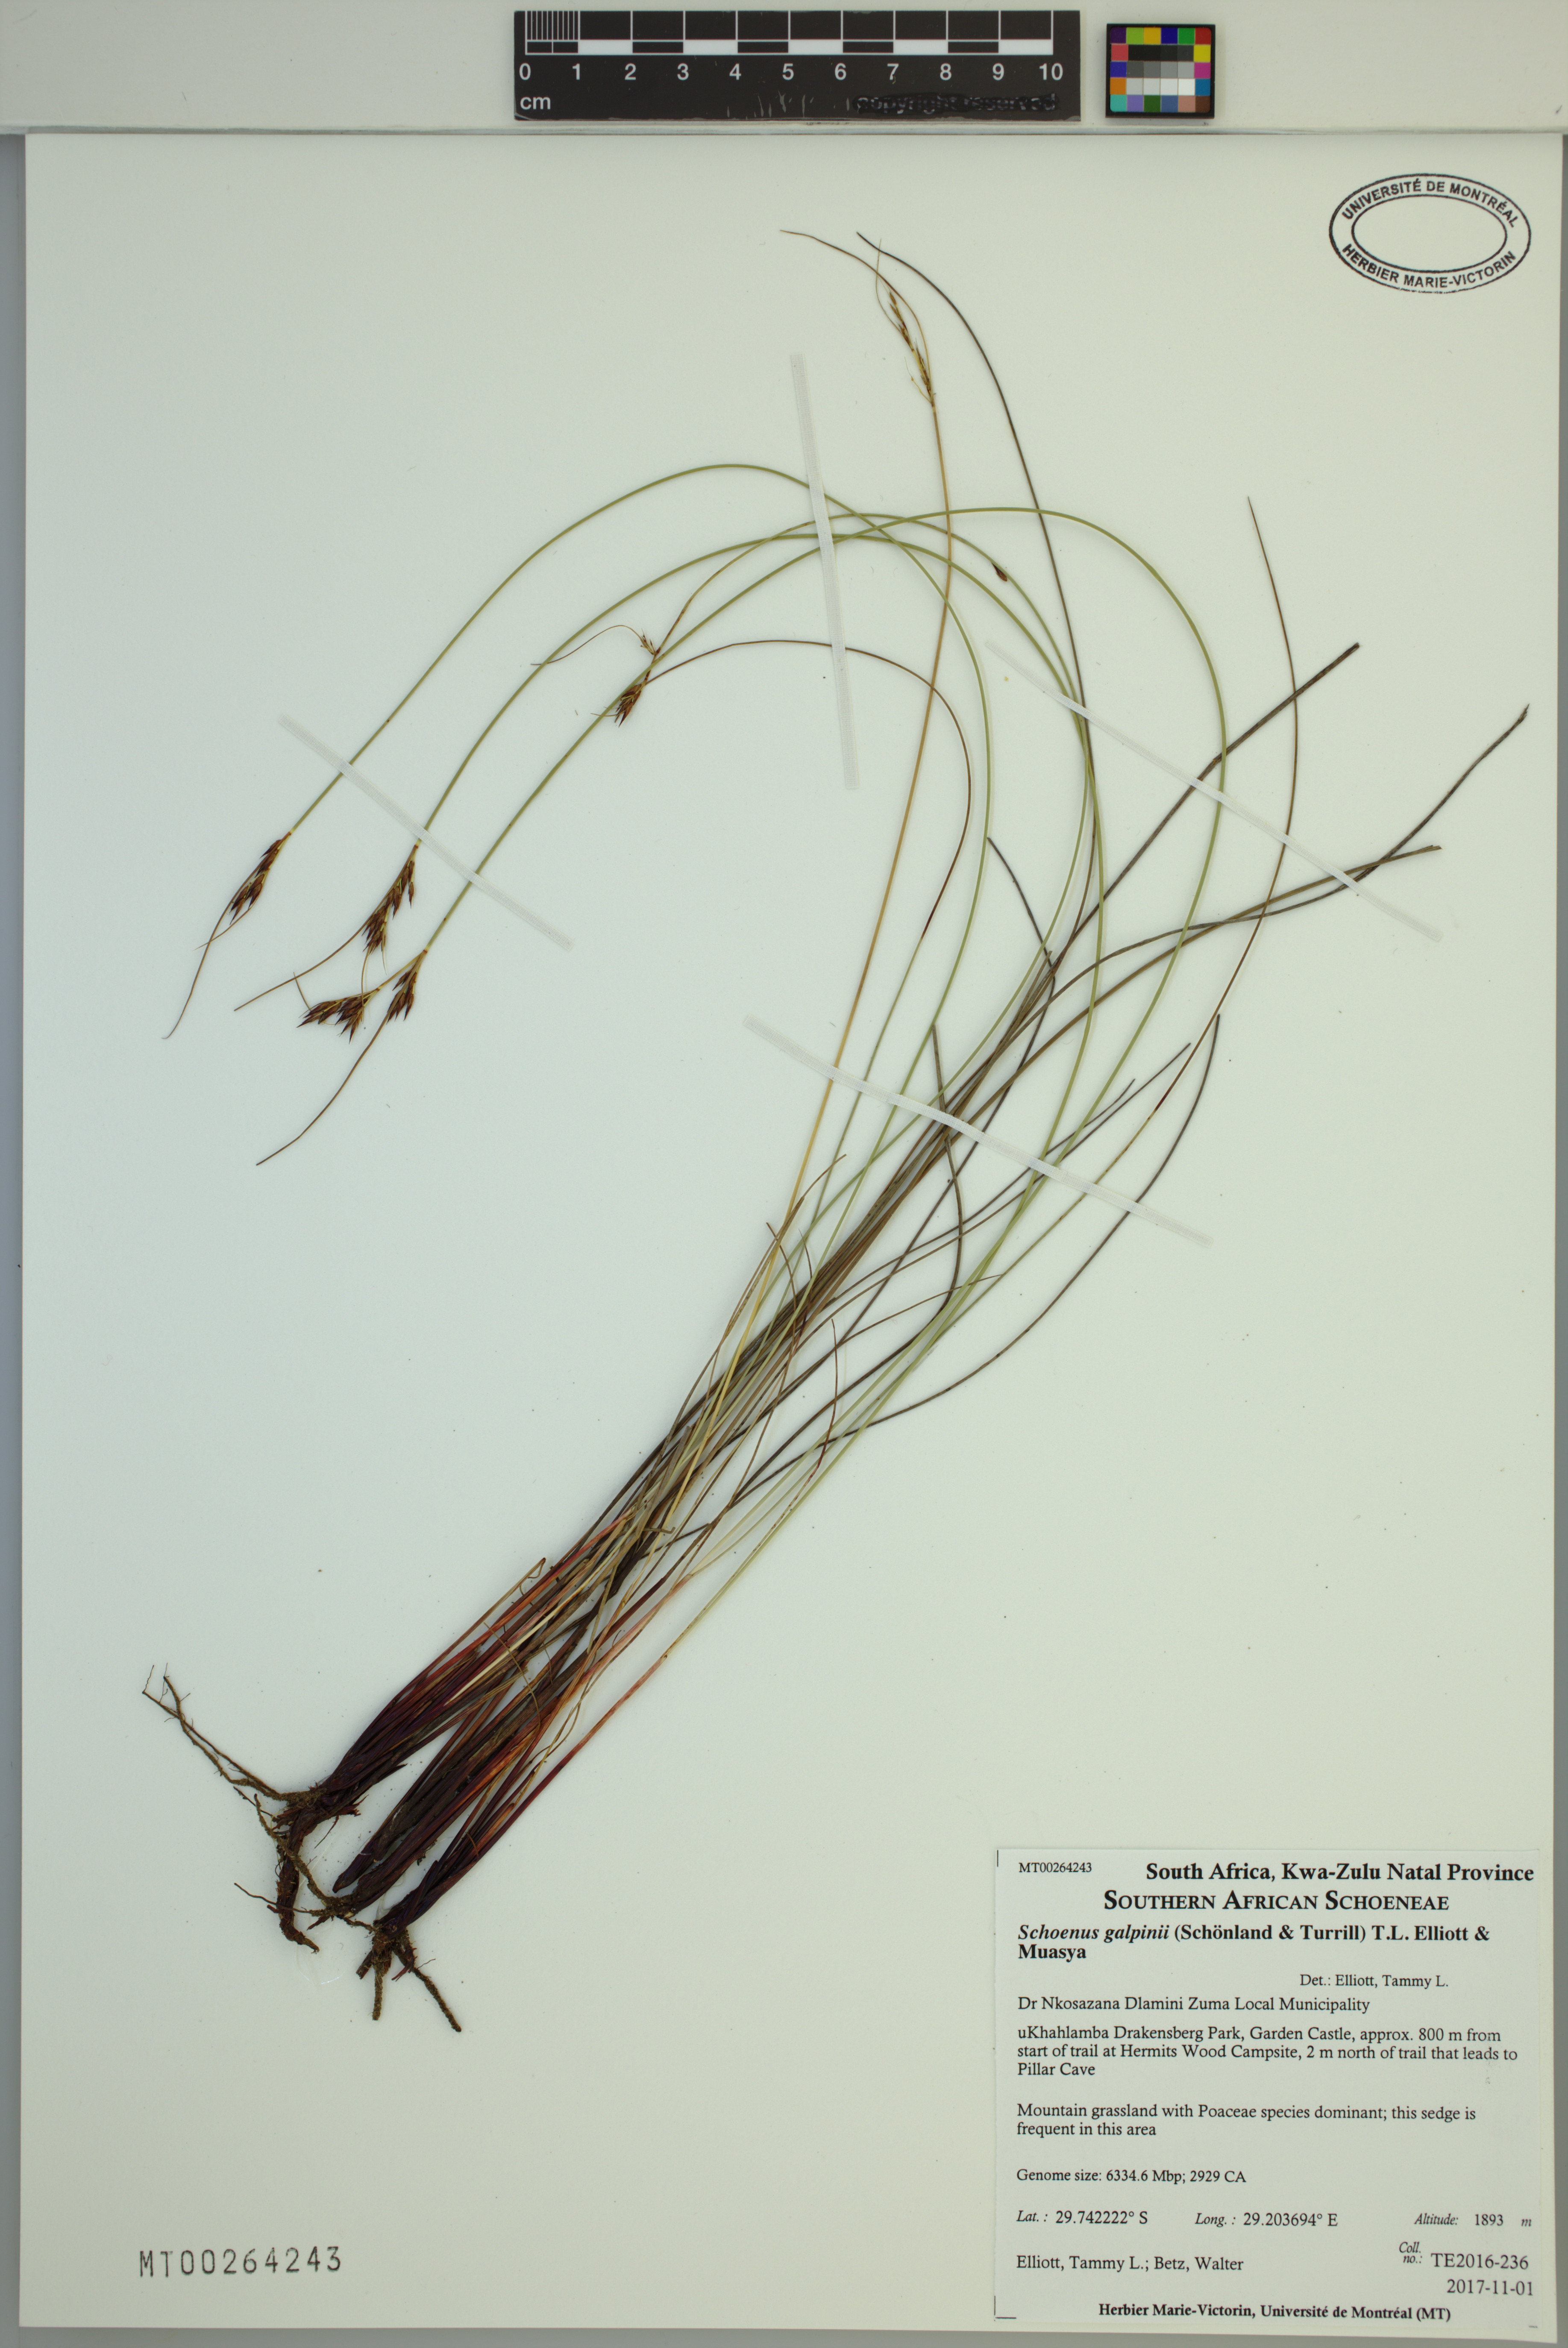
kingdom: Plantae
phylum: Tracheophyta
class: Liliopsida
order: Poales
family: Cyperaceae
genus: Schoenus
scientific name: Schoenus galpinii
